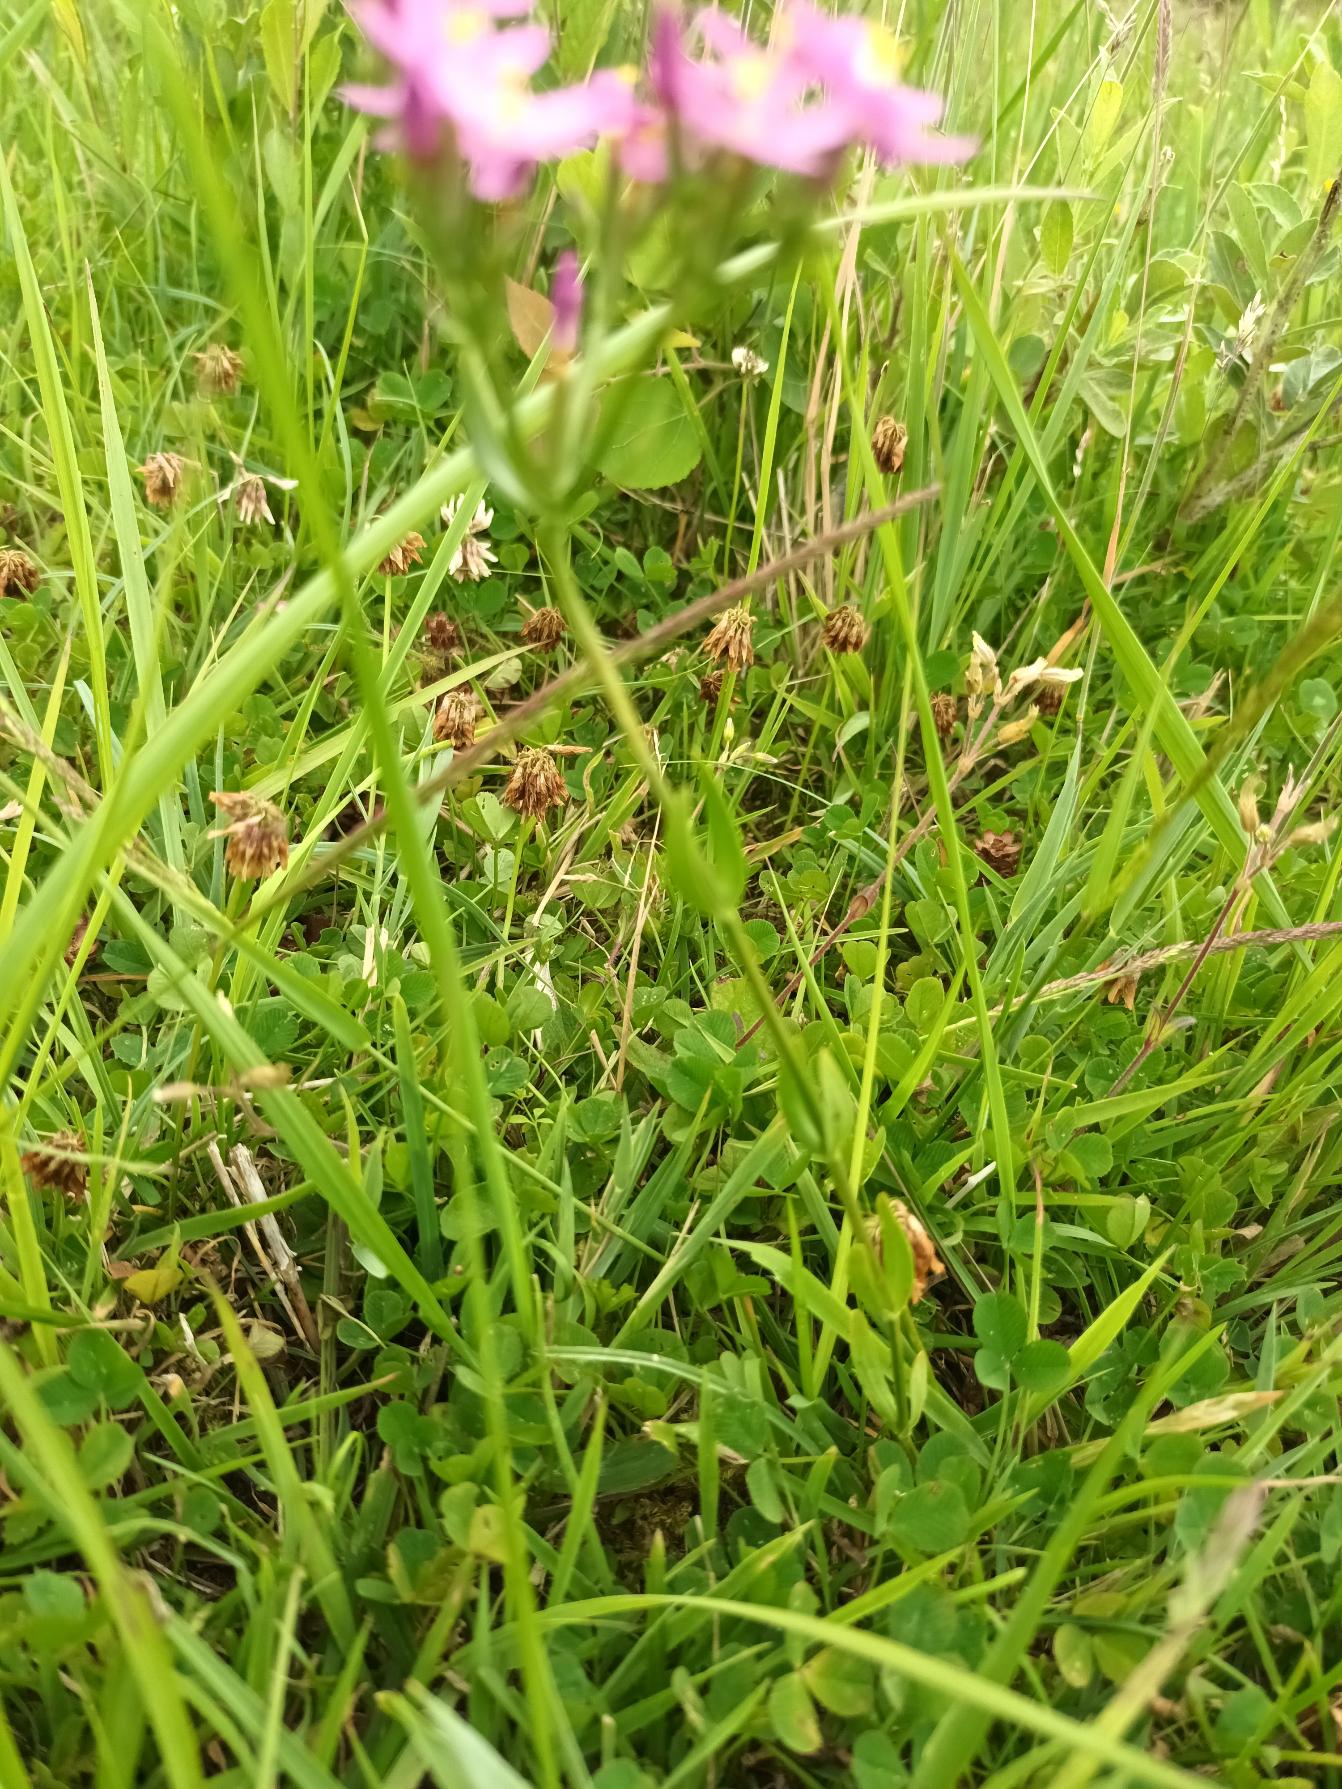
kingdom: Plantae
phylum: Tracheophyta
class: Magnoliopsida
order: Gentianales
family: Gentianaceae
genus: Centaurium
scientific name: Centaurium littorale
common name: Strand-tusindgylden
